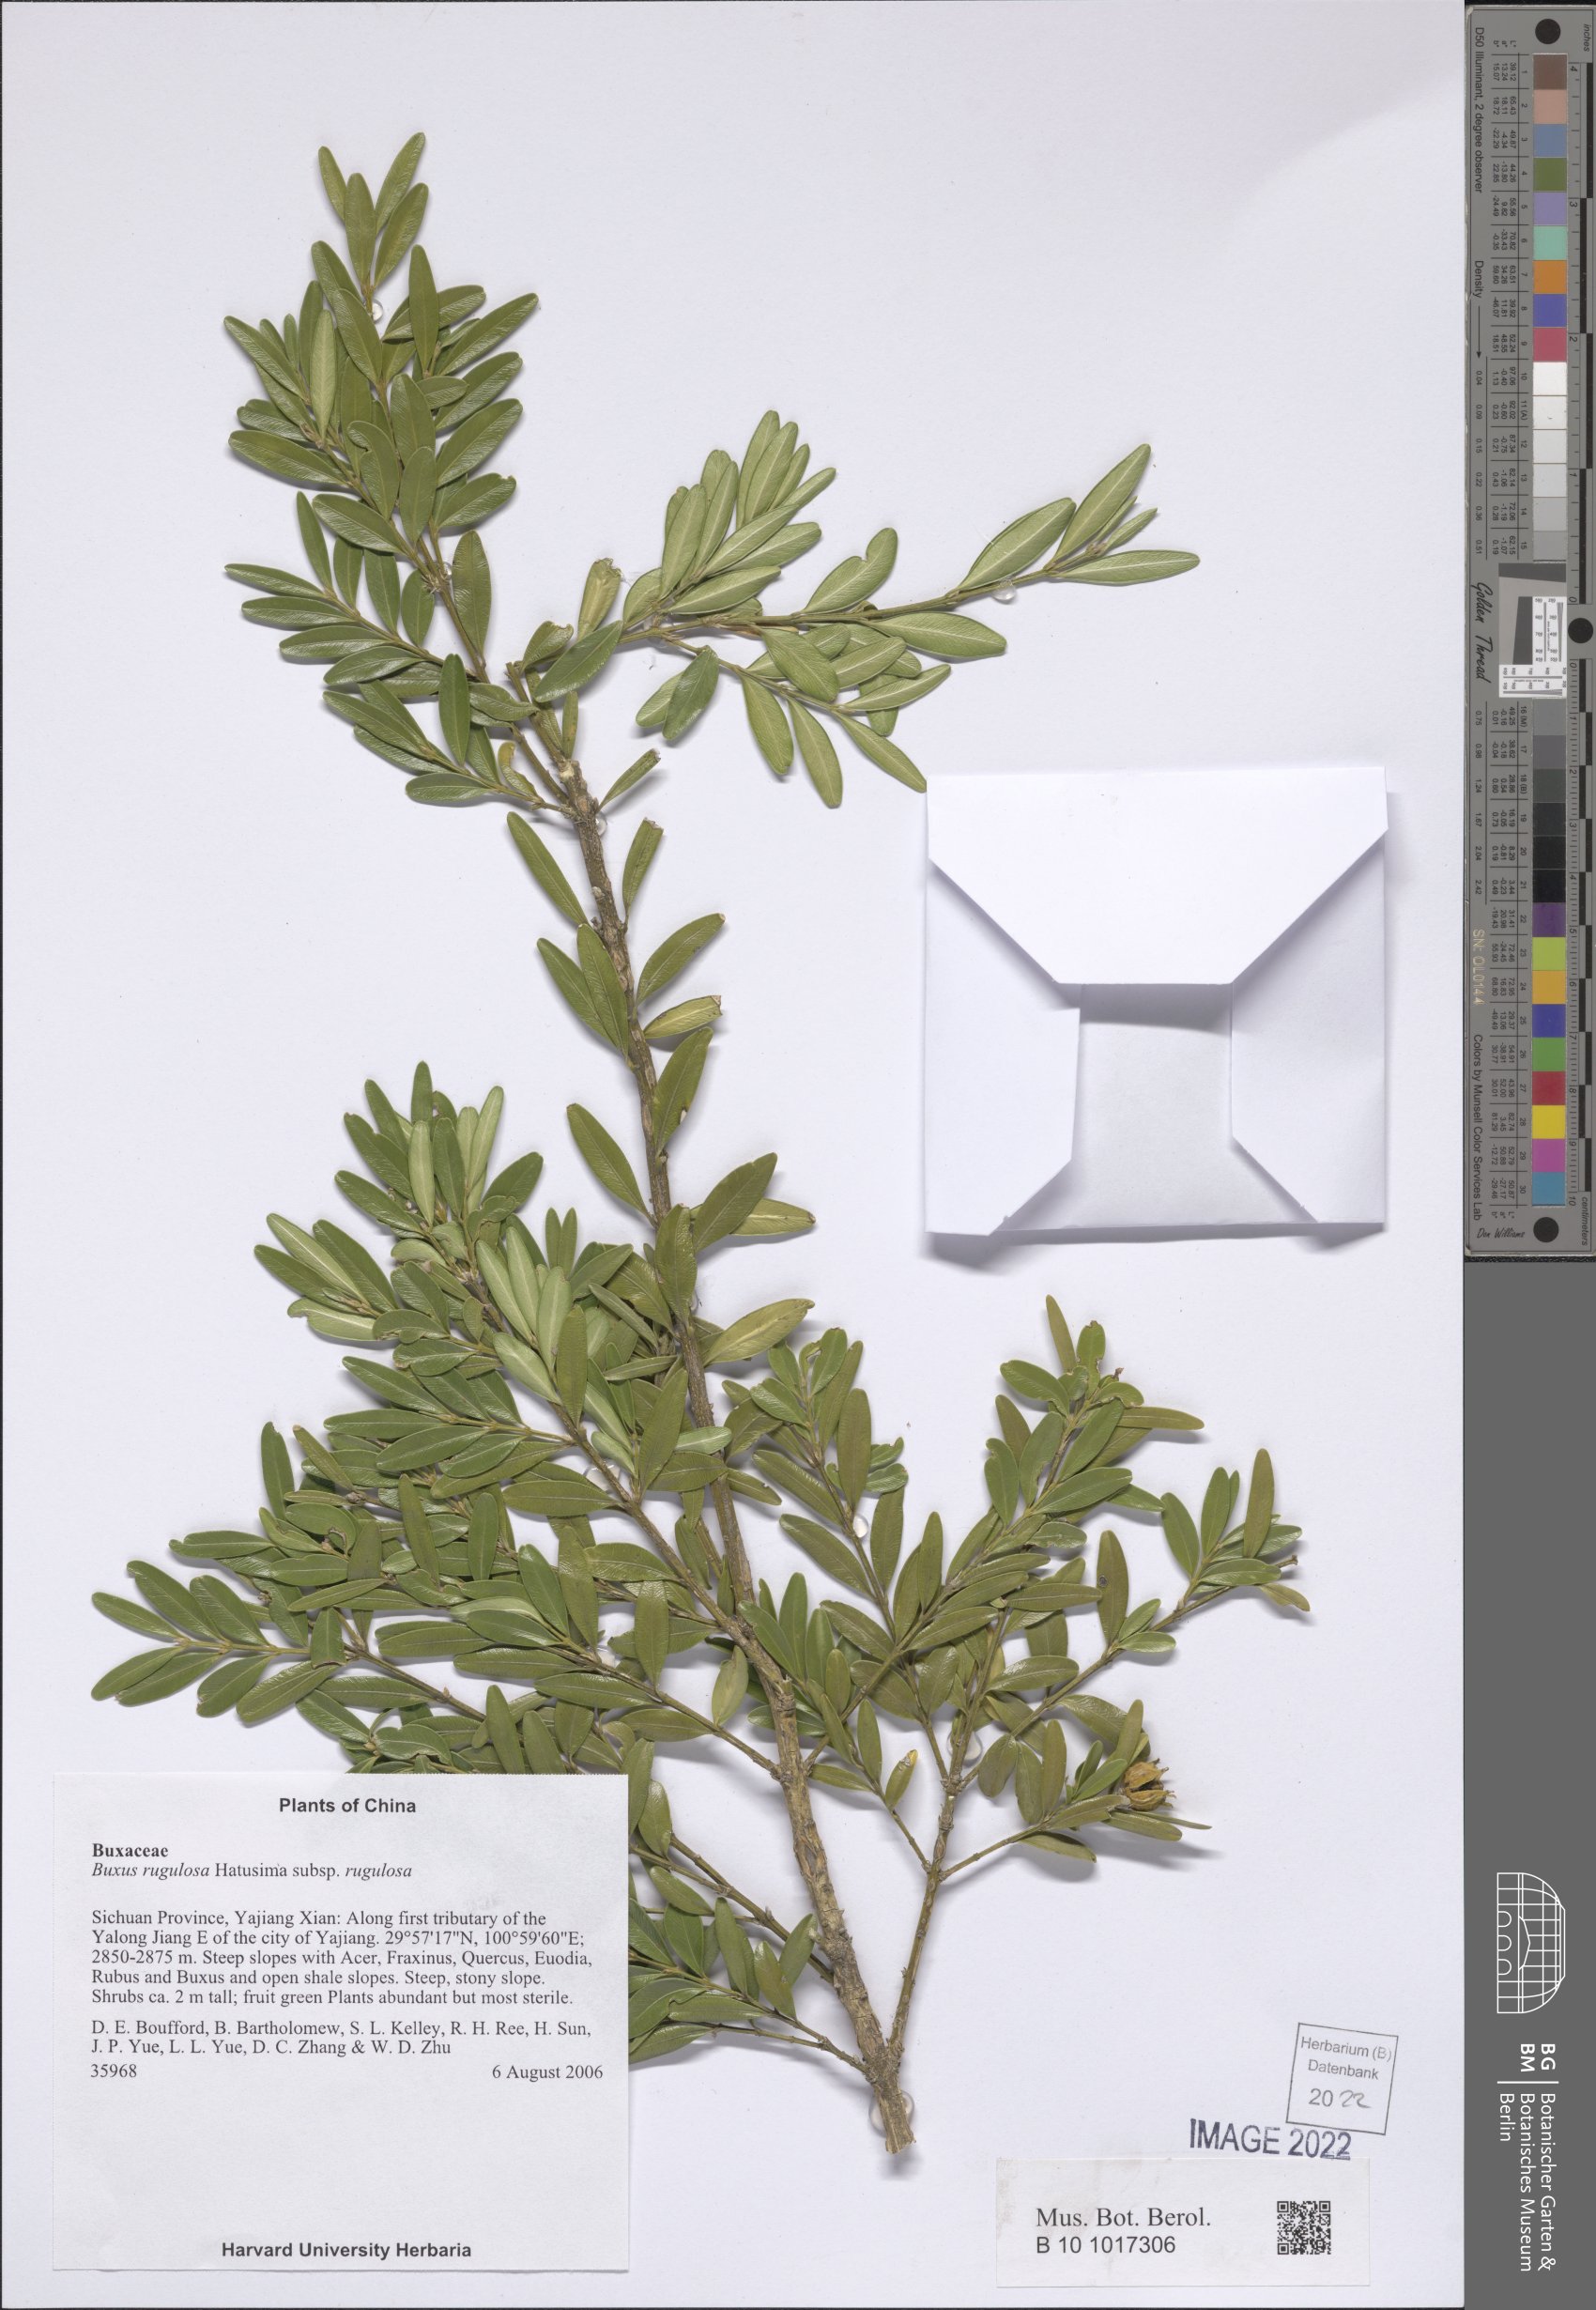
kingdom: Plantae
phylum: Tracheophyta
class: Magnoliopsida
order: Buxales
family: Buxaceae
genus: Buxus
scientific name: Buxus rugulosa
